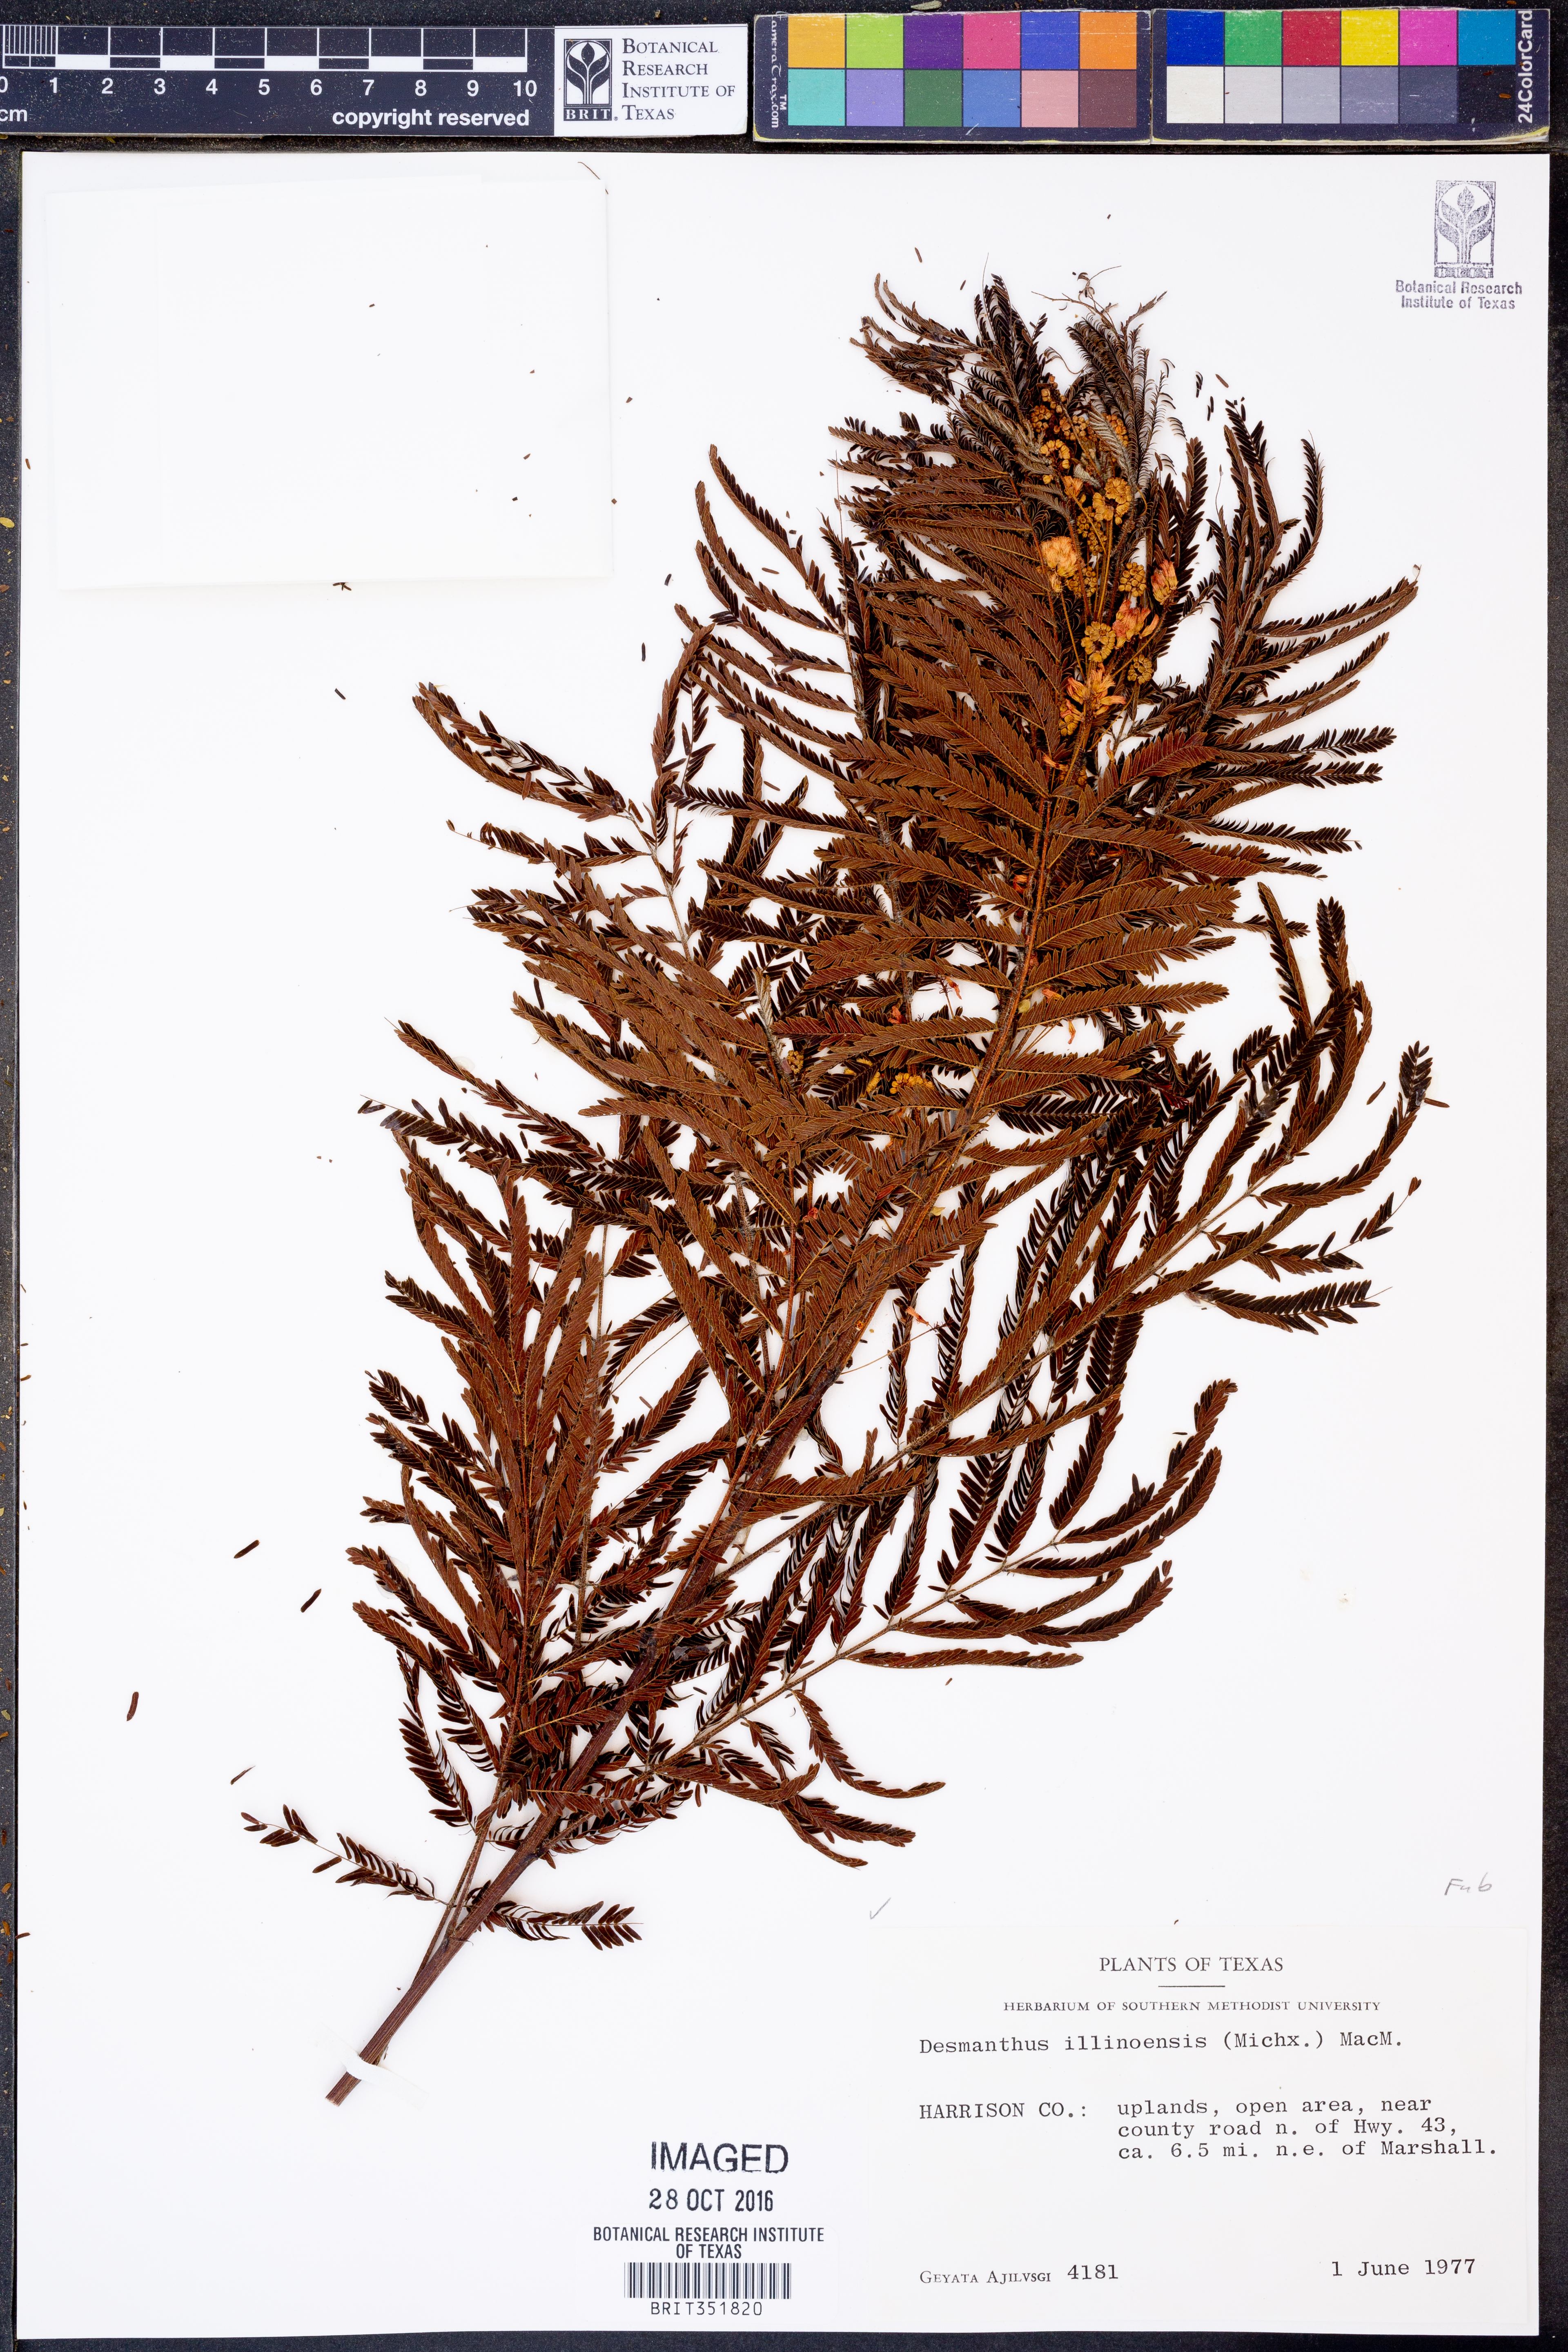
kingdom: Plantae
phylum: Tracheophyta
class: Magnoliopsida
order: Fabales
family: Fabaceae
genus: Desmanthus
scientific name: Desmanthus illinoensis
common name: Illinois bundle-flower
